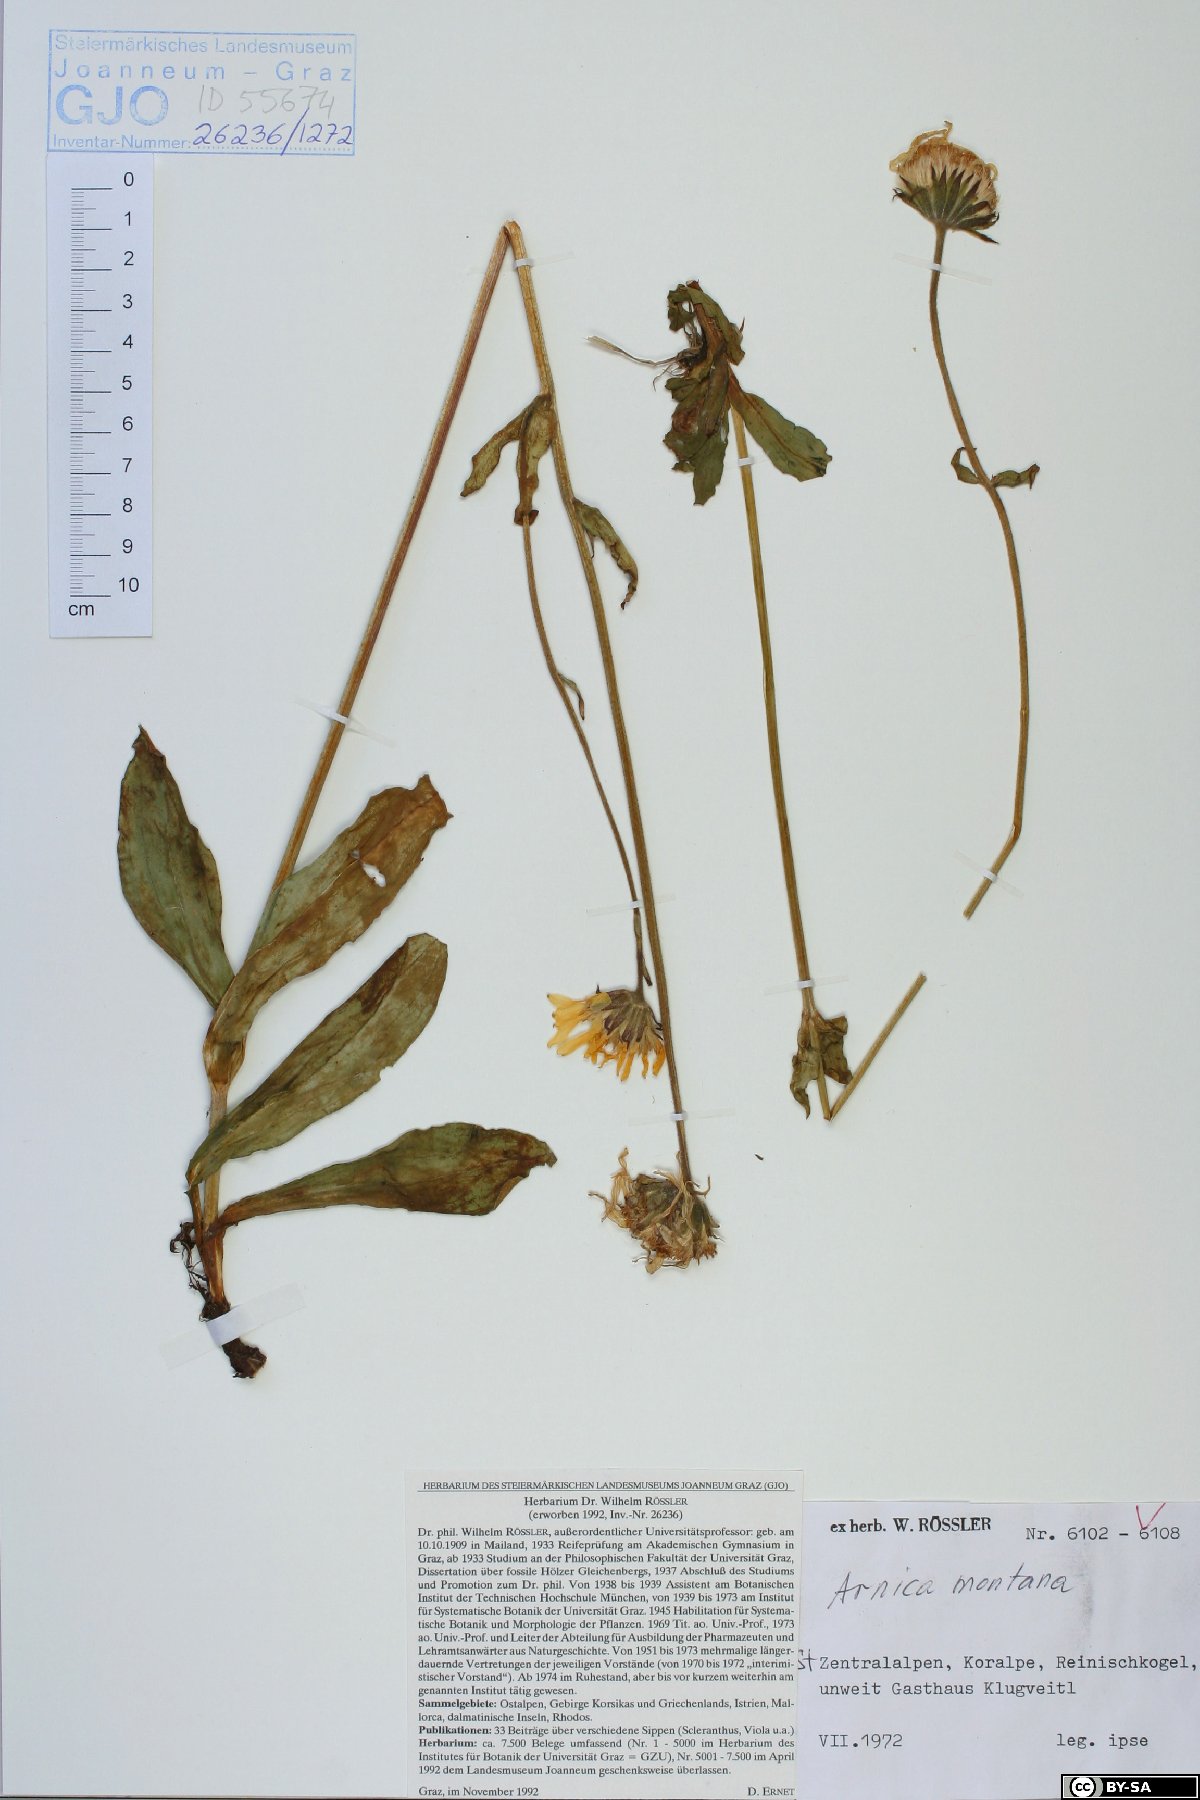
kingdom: Plantae
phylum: Tracheophyta
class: Magnoliopsida
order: Asterales
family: Asteraceae
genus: Arnica
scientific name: Arnica montana
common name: Leopard's bane
